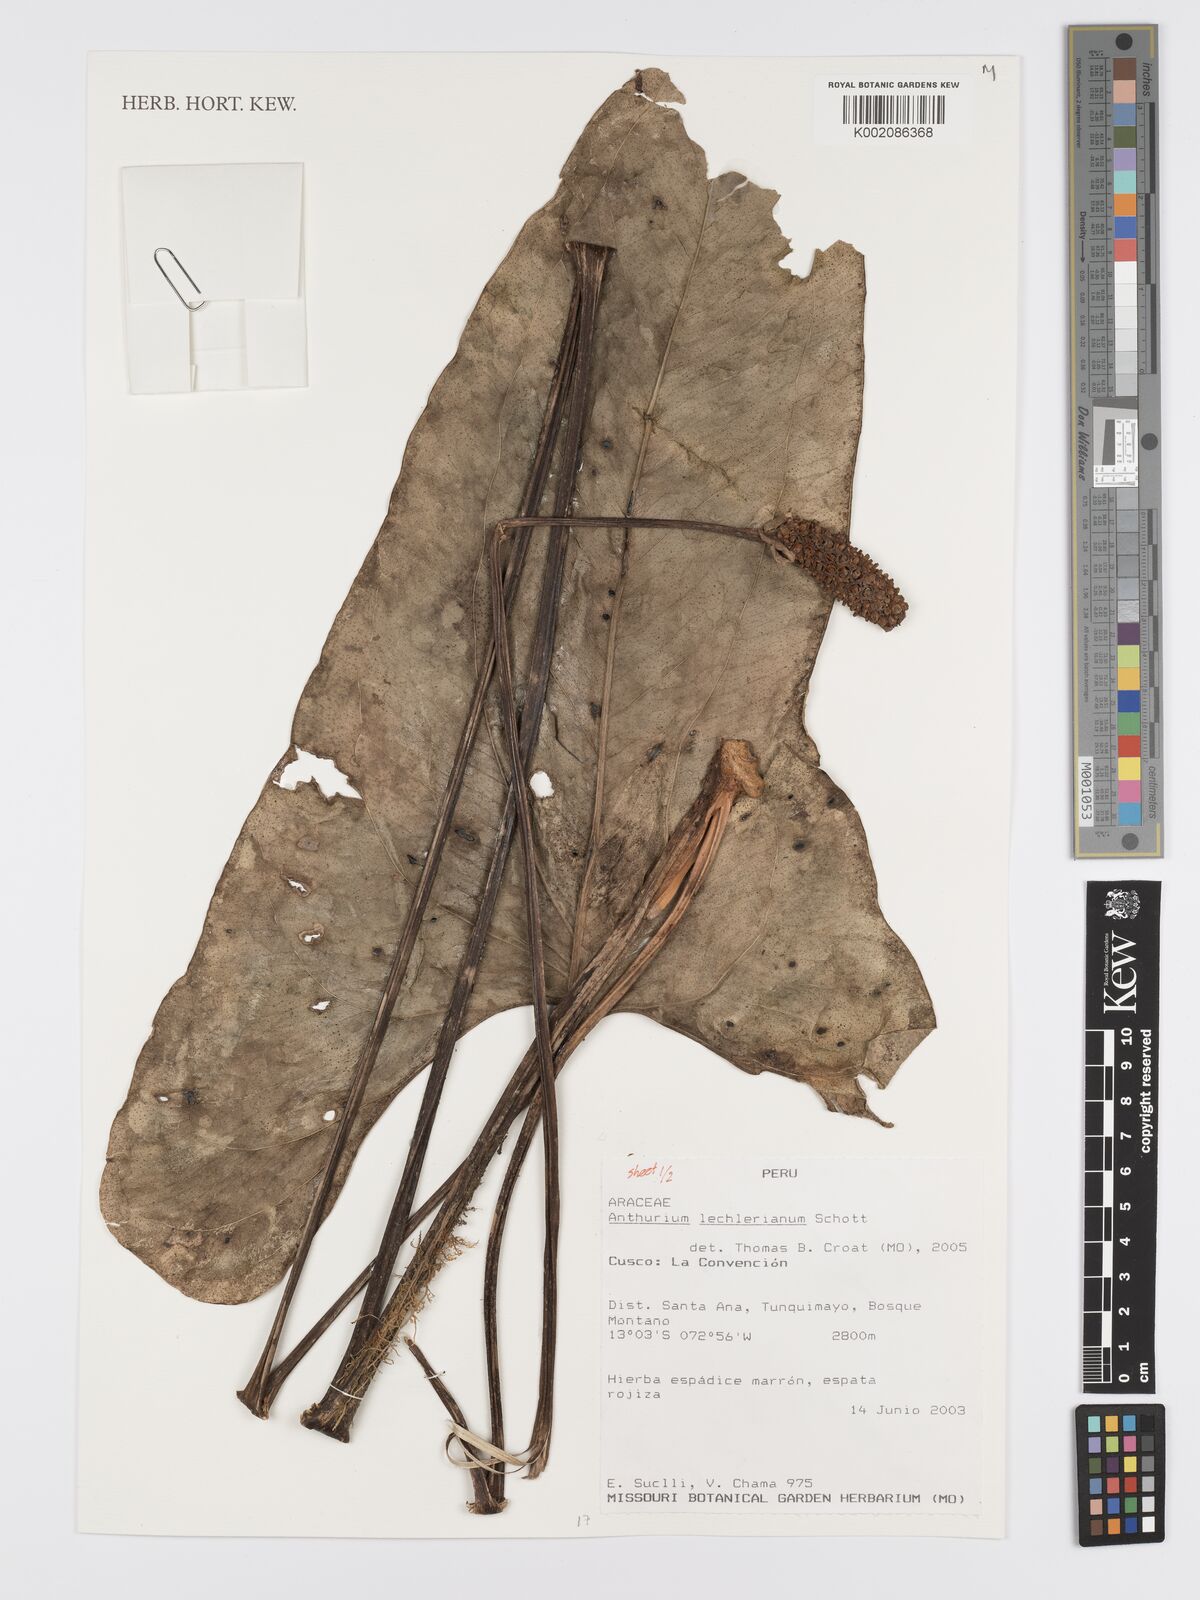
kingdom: Plantae
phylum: Tracheophyta
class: Liliopsida
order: Alismatales
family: Araceae
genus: Anthurium
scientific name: Anthurium lechlerianum
